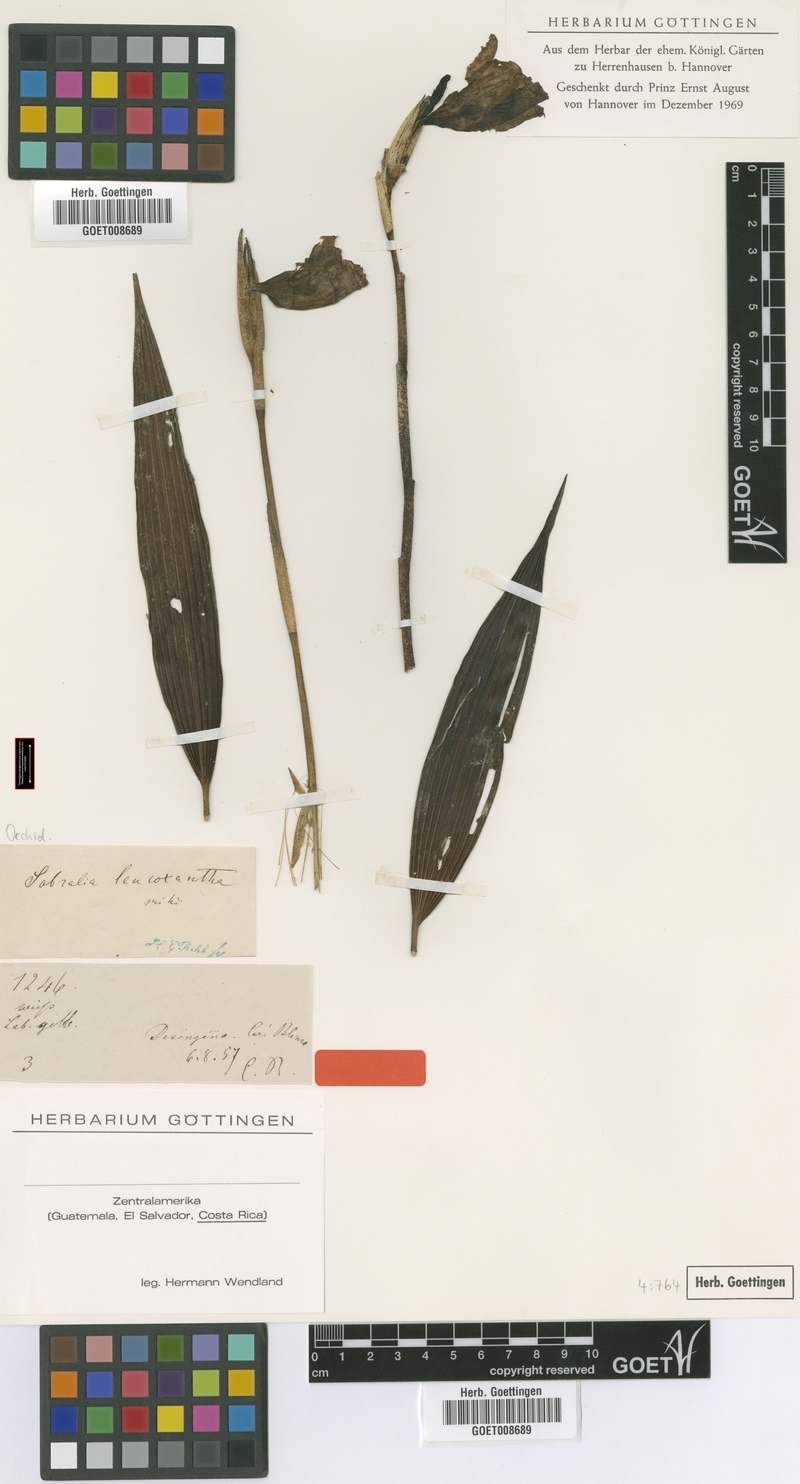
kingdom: Plantae
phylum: Tracheophyta
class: Liliopsida
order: Asparagales
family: Orchidaceae
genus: Sobralia
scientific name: Sobralia leucoxantha
